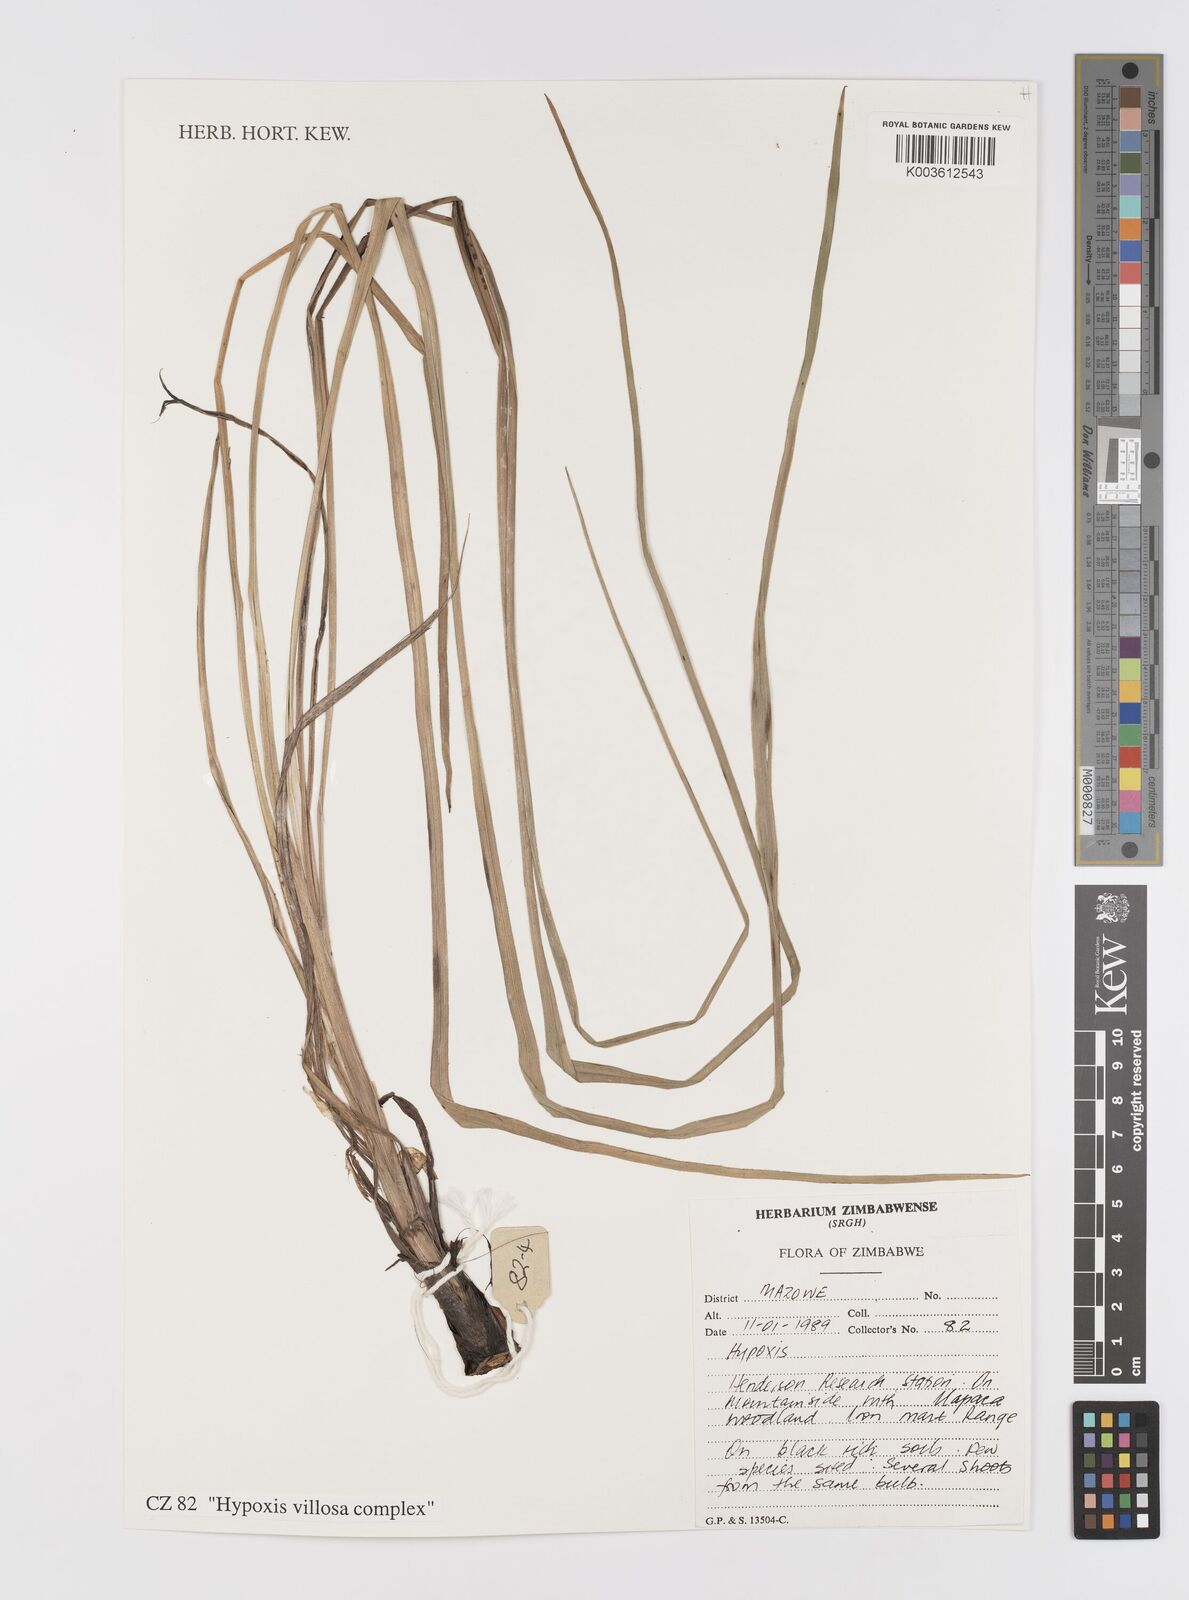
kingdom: Plantae
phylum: Tracheophyta
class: Liliopsida
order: Asparagales
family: Hypoxidaceae
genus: Hypoxis
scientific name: Hypoxis villosa
